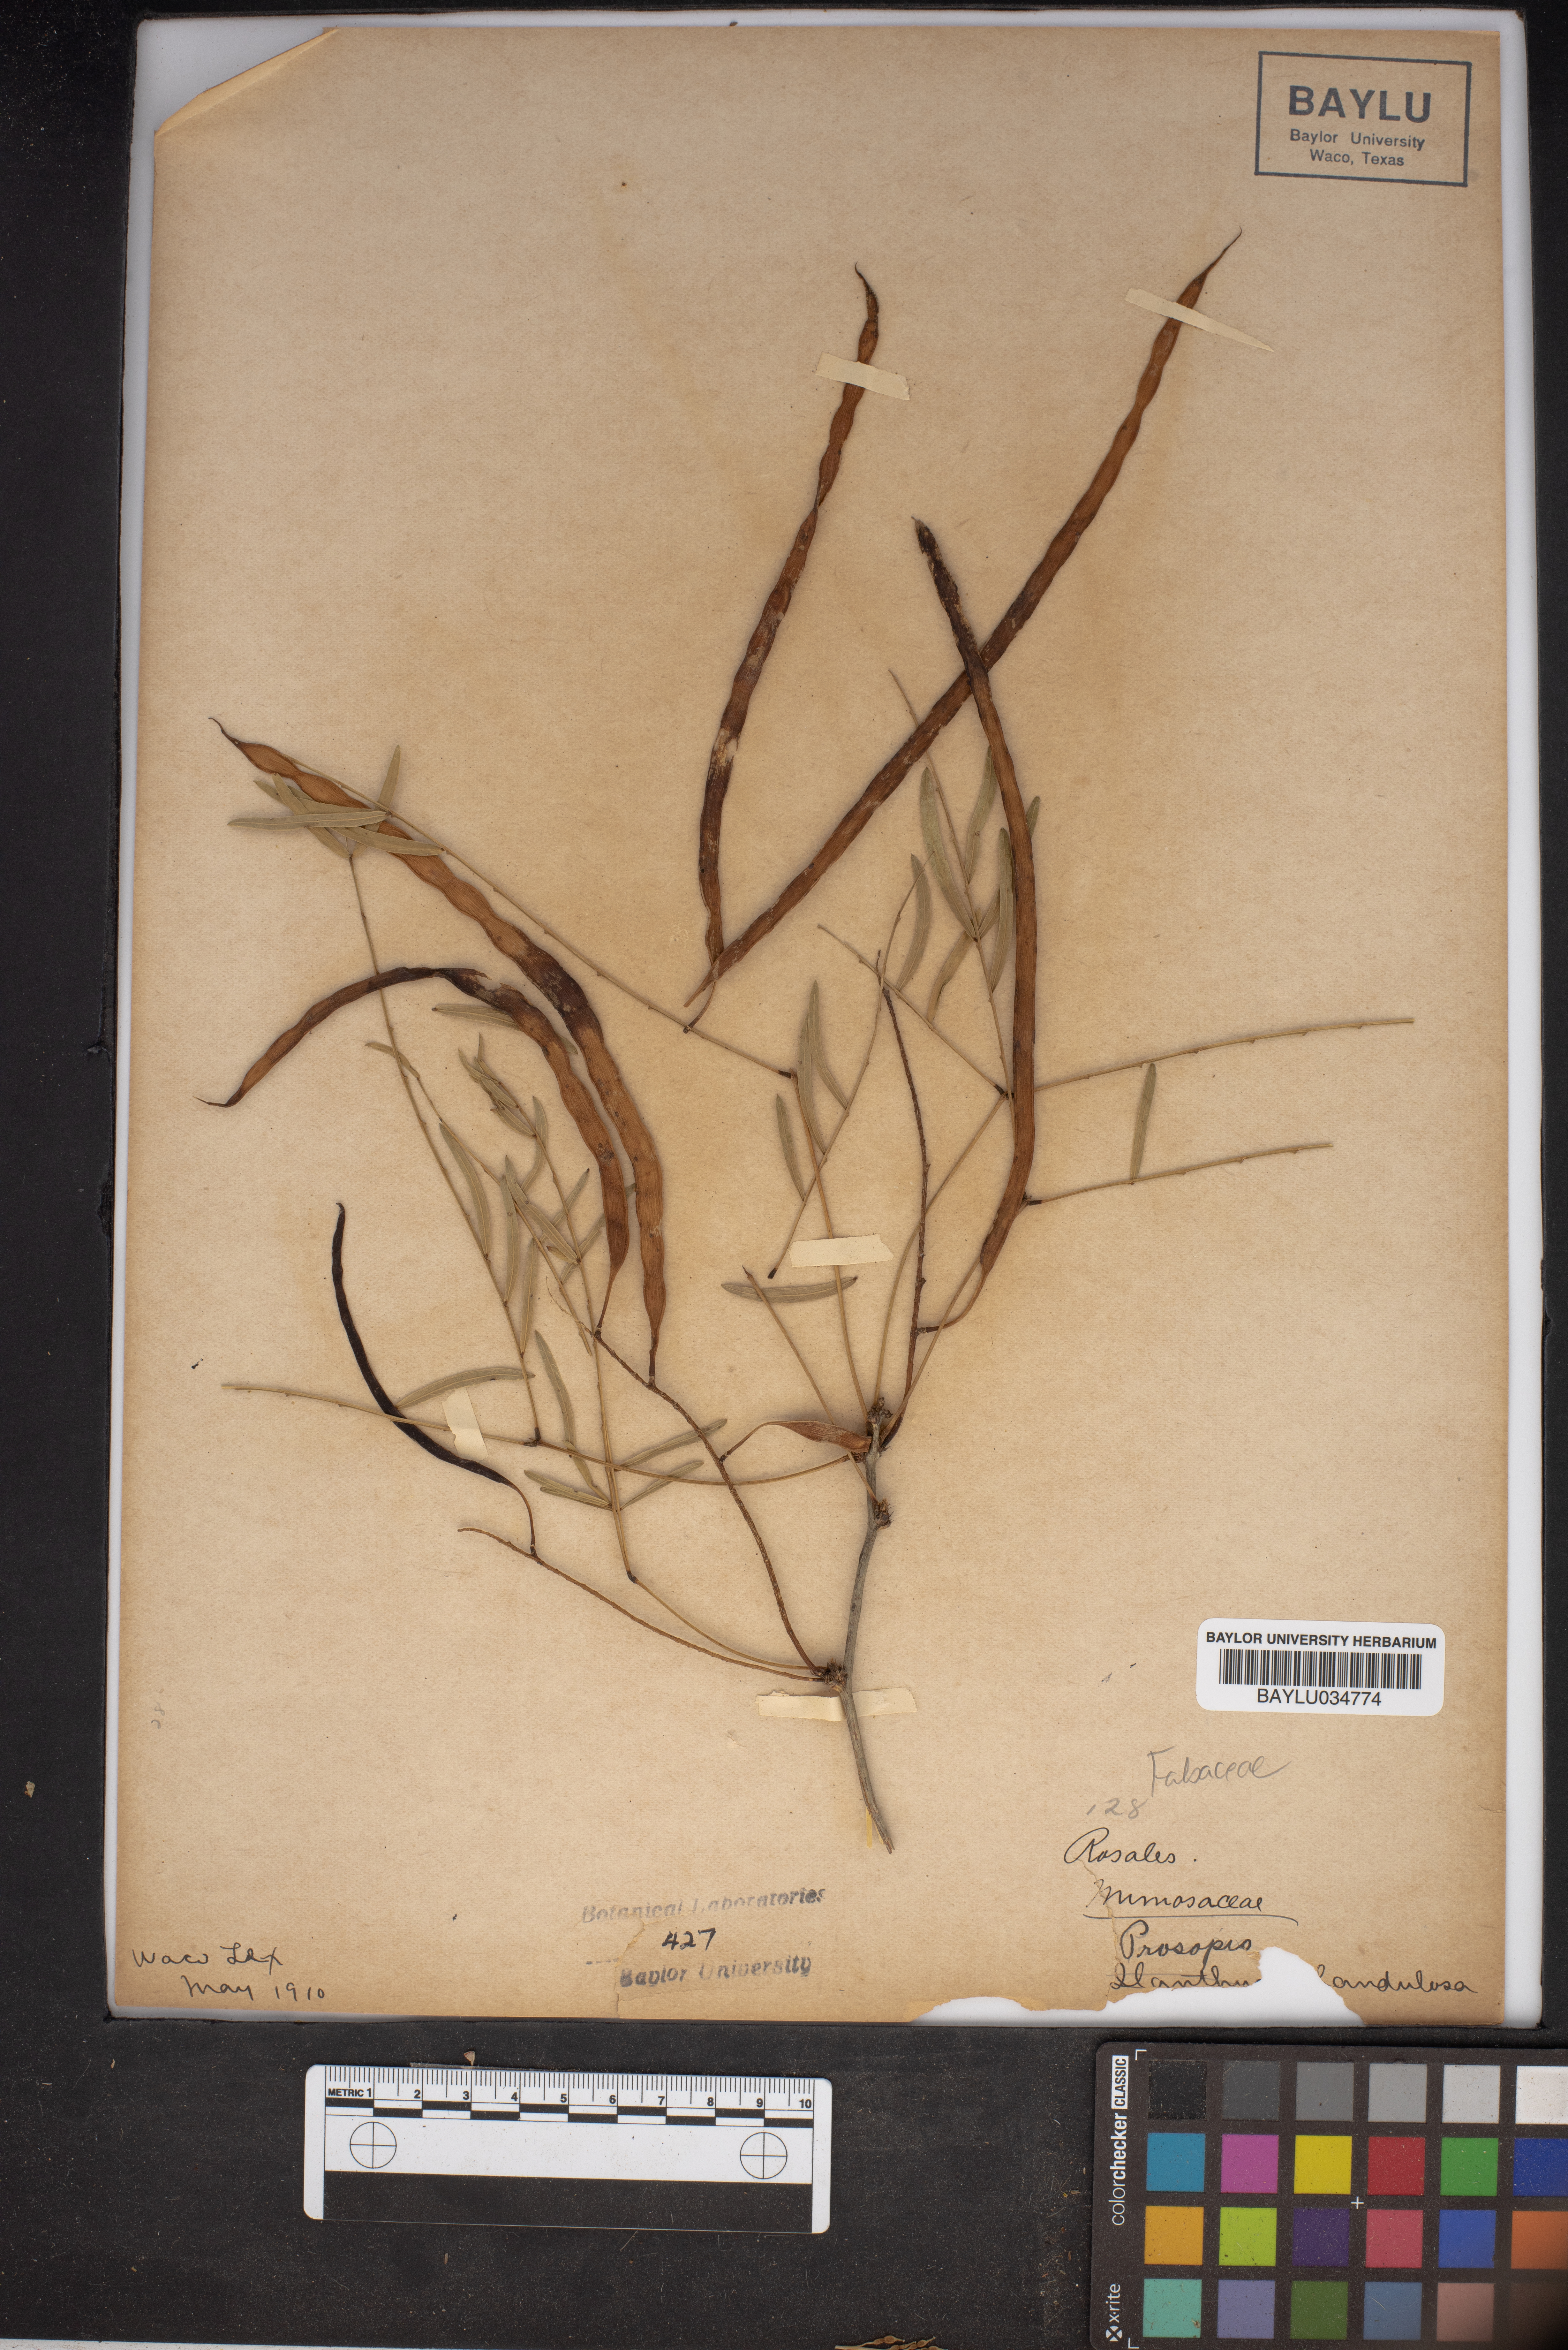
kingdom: Plantae
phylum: Tracheophyta
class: Magnoliopsida
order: Fabales
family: Fabaceae
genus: Mimosa
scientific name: Mimosa
